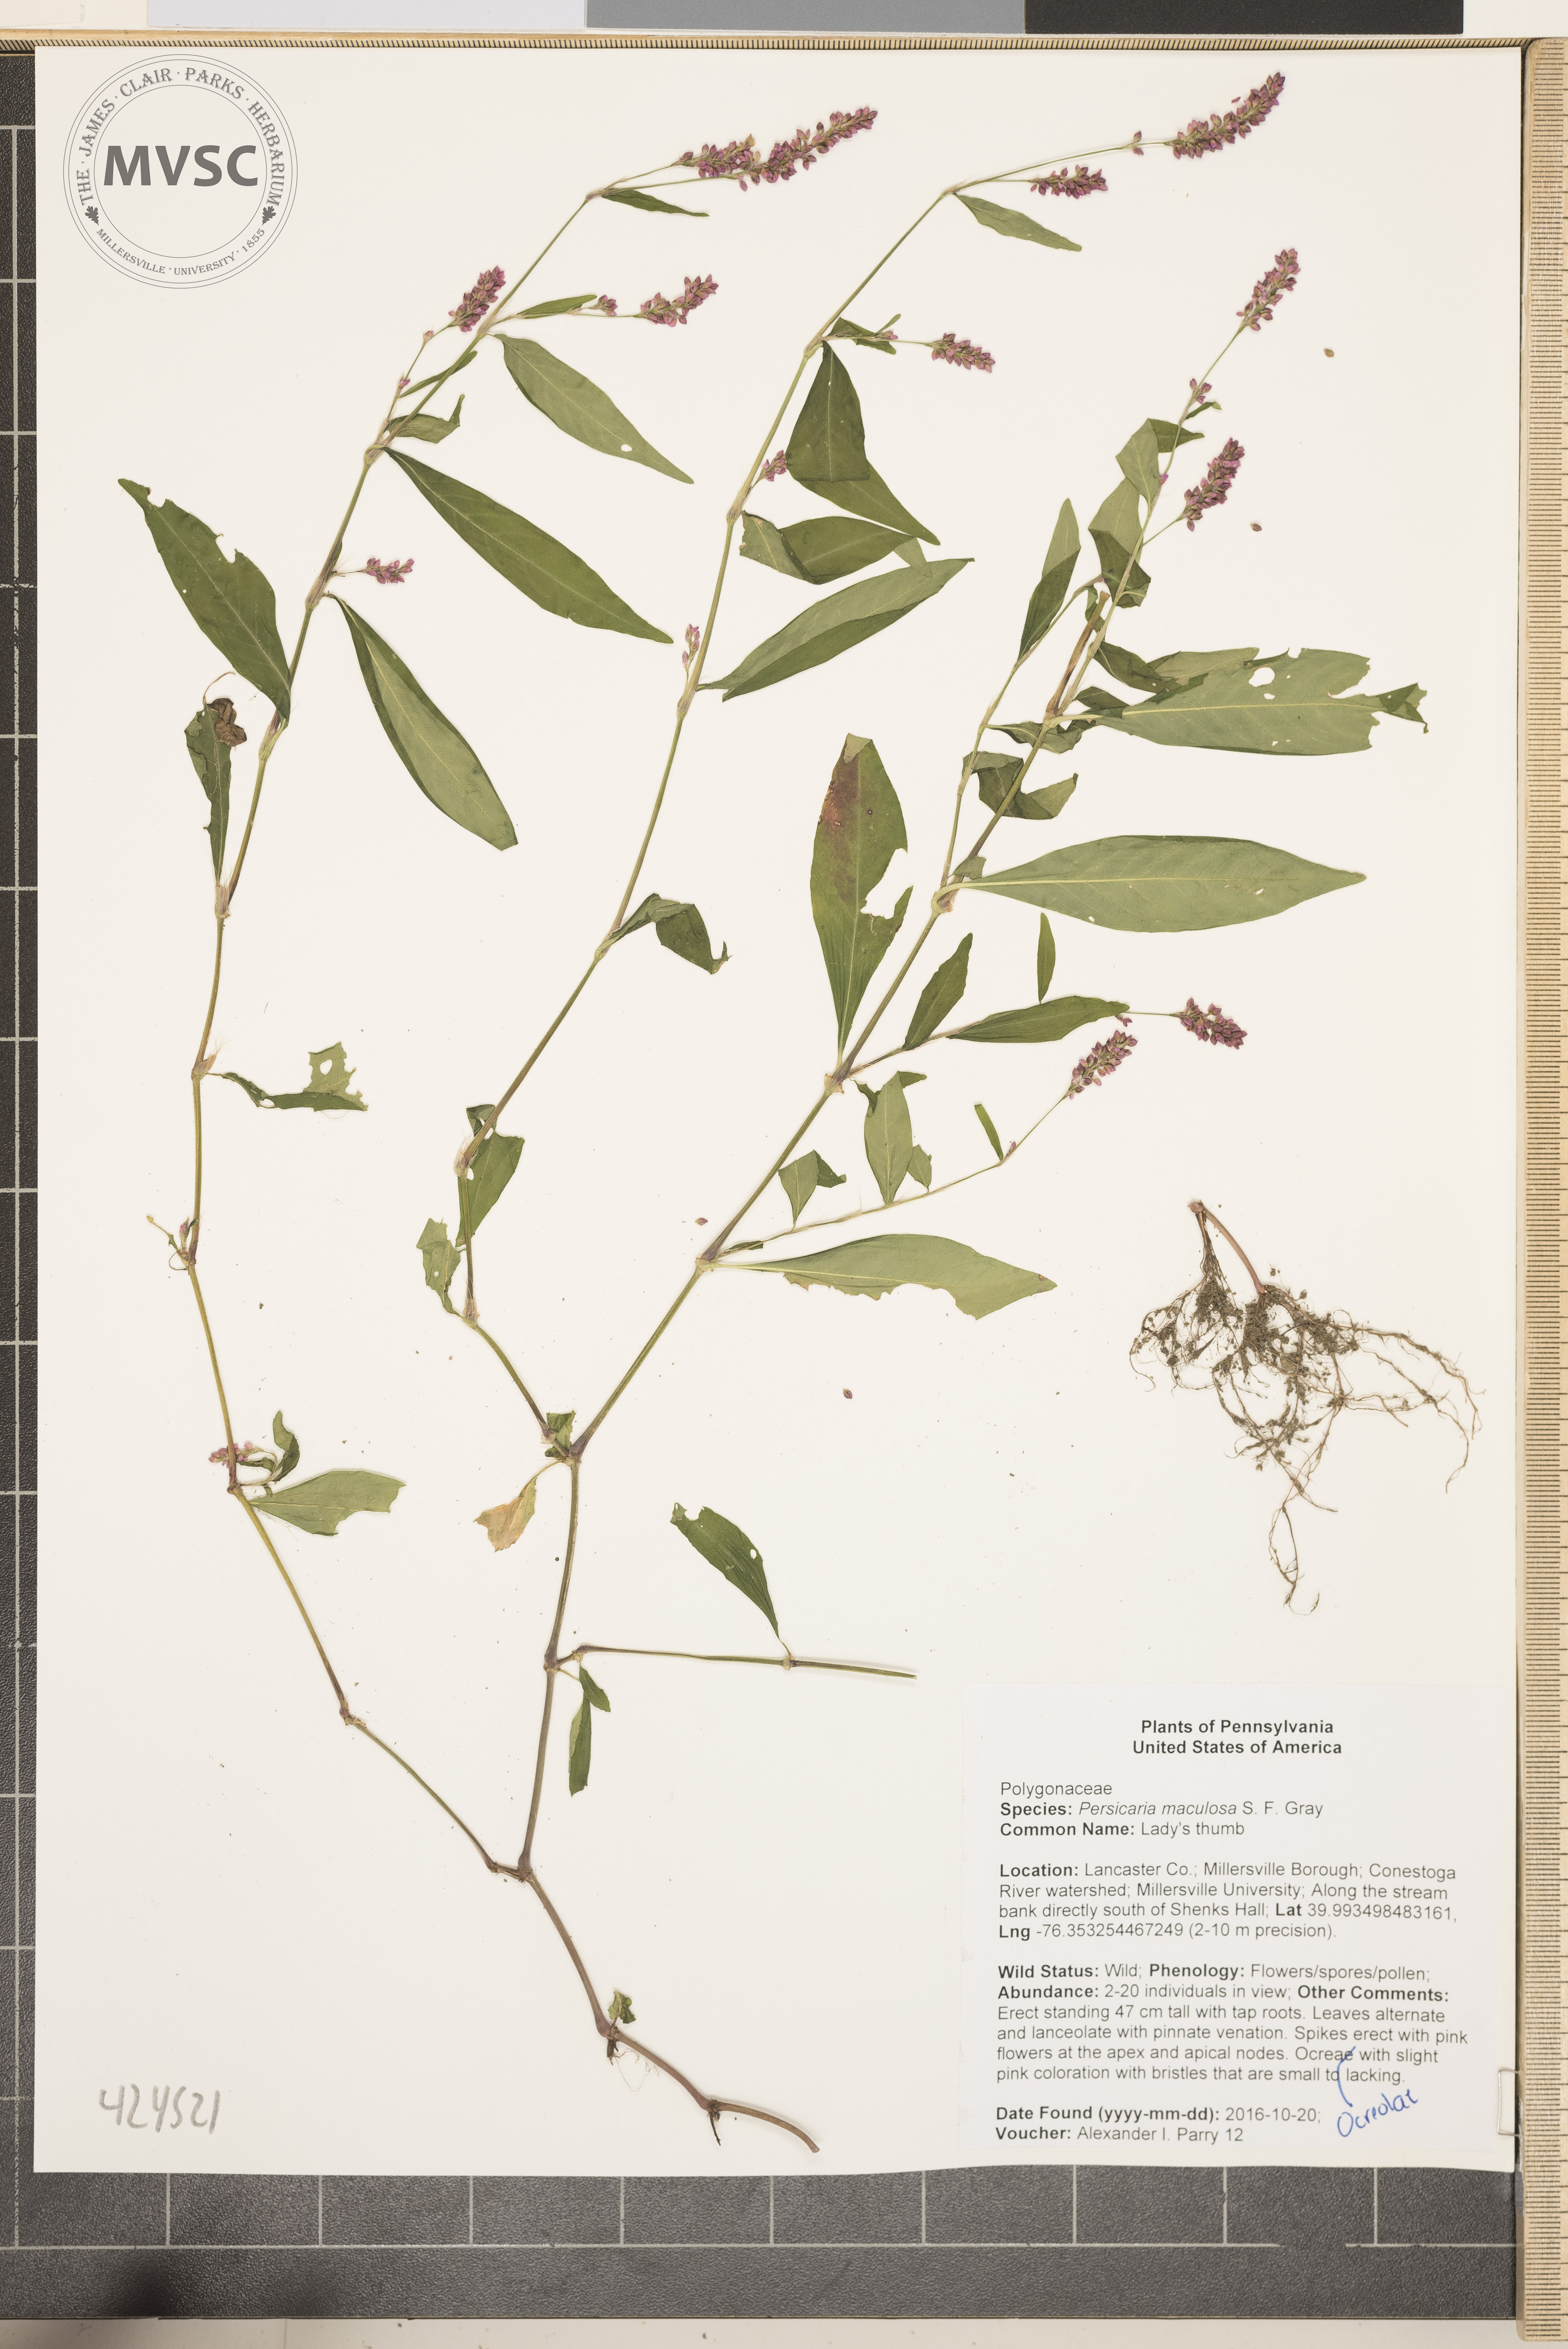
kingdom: Plantae
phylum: Tracheophyta
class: Magnoliopsida
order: Caryophyllales
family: Polygonaceae
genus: Persicaria
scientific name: Persicaria maculosa
